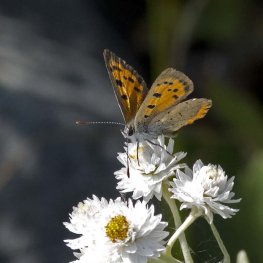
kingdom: Animalia
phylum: Arthropoda
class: Insecta
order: Lepidoptera
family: Lycaenidae
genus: Lycaena
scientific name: Lycaena phlaeas
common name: American Copper
